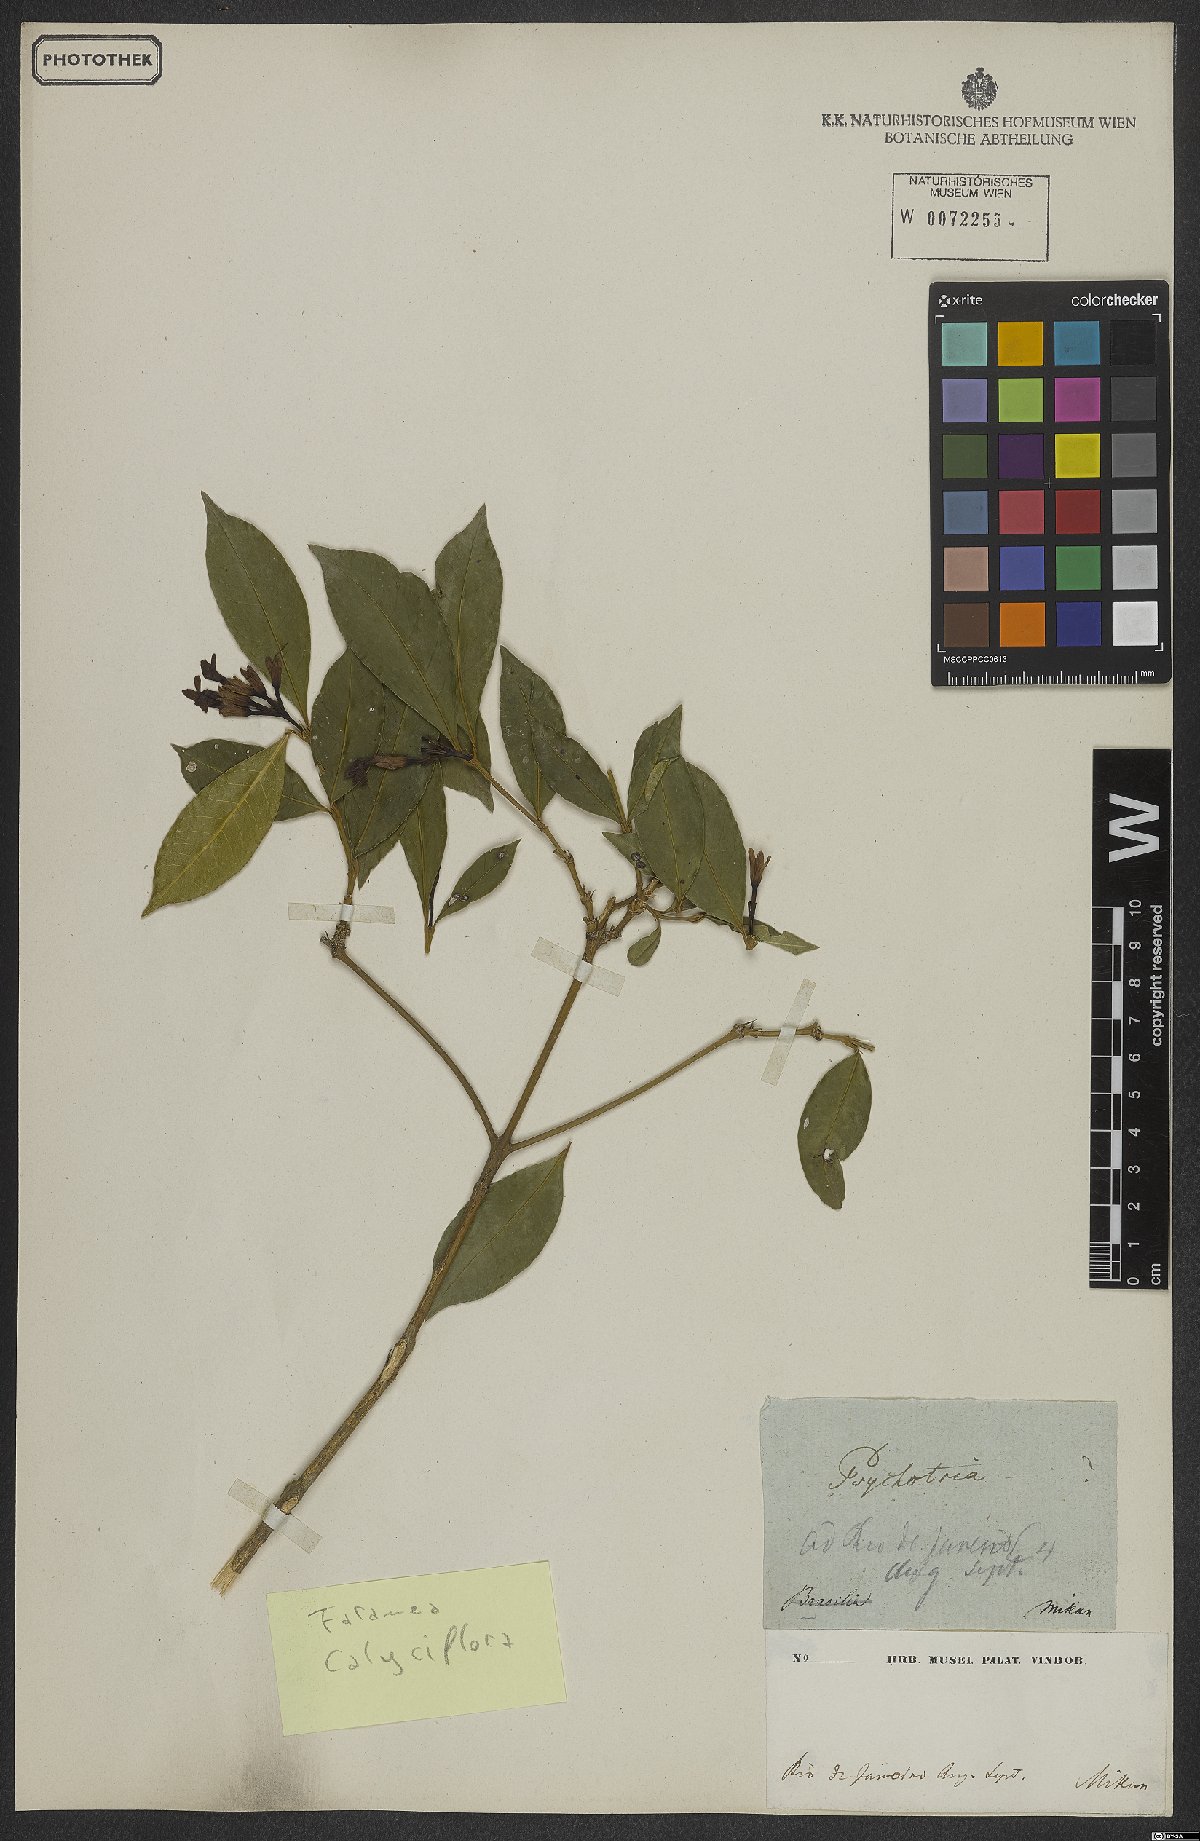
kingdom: Plantae
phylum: Tracheophyta
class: Magnoliopsida
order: Gentianales
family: Rubiaceae
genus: Faramea
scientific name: Faramea calyciflora
